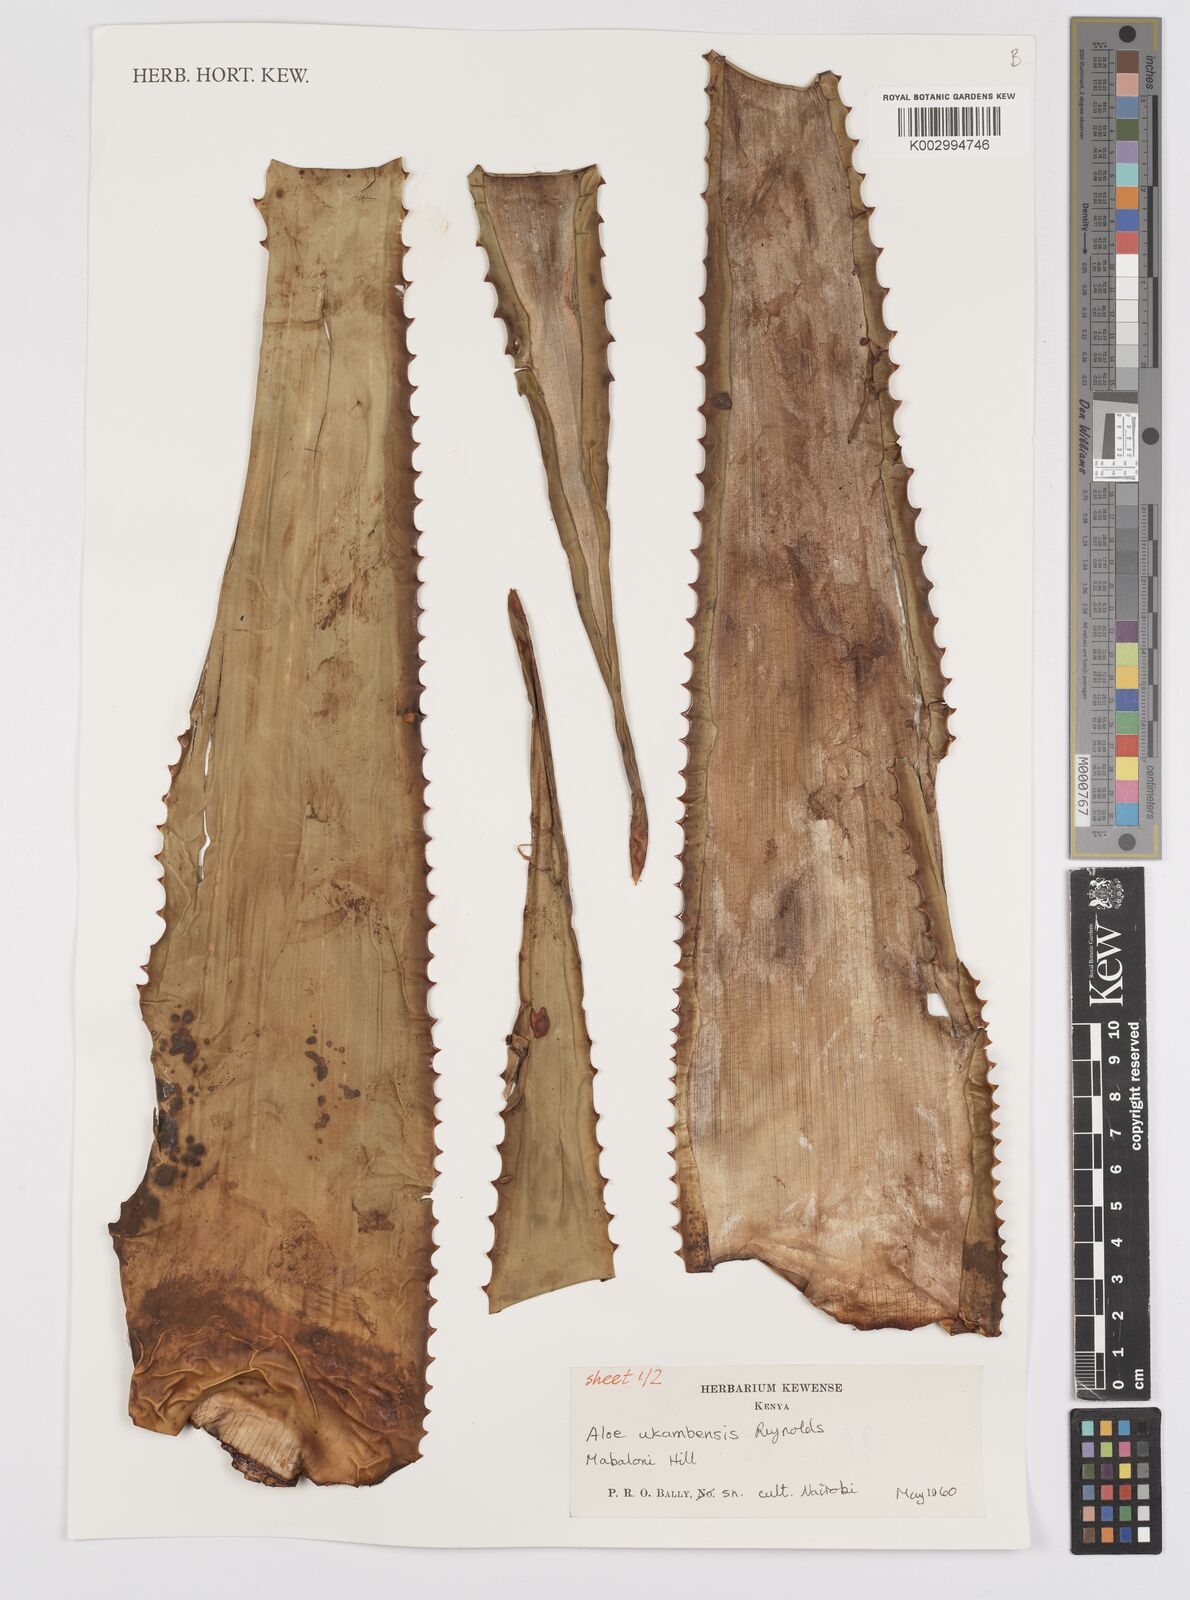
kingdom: Plantae
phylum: Tracheophyta
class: Liliopsida
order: Asparagales
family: Asphodelaceae
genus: Aloe
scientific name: Aloe ukambensis
